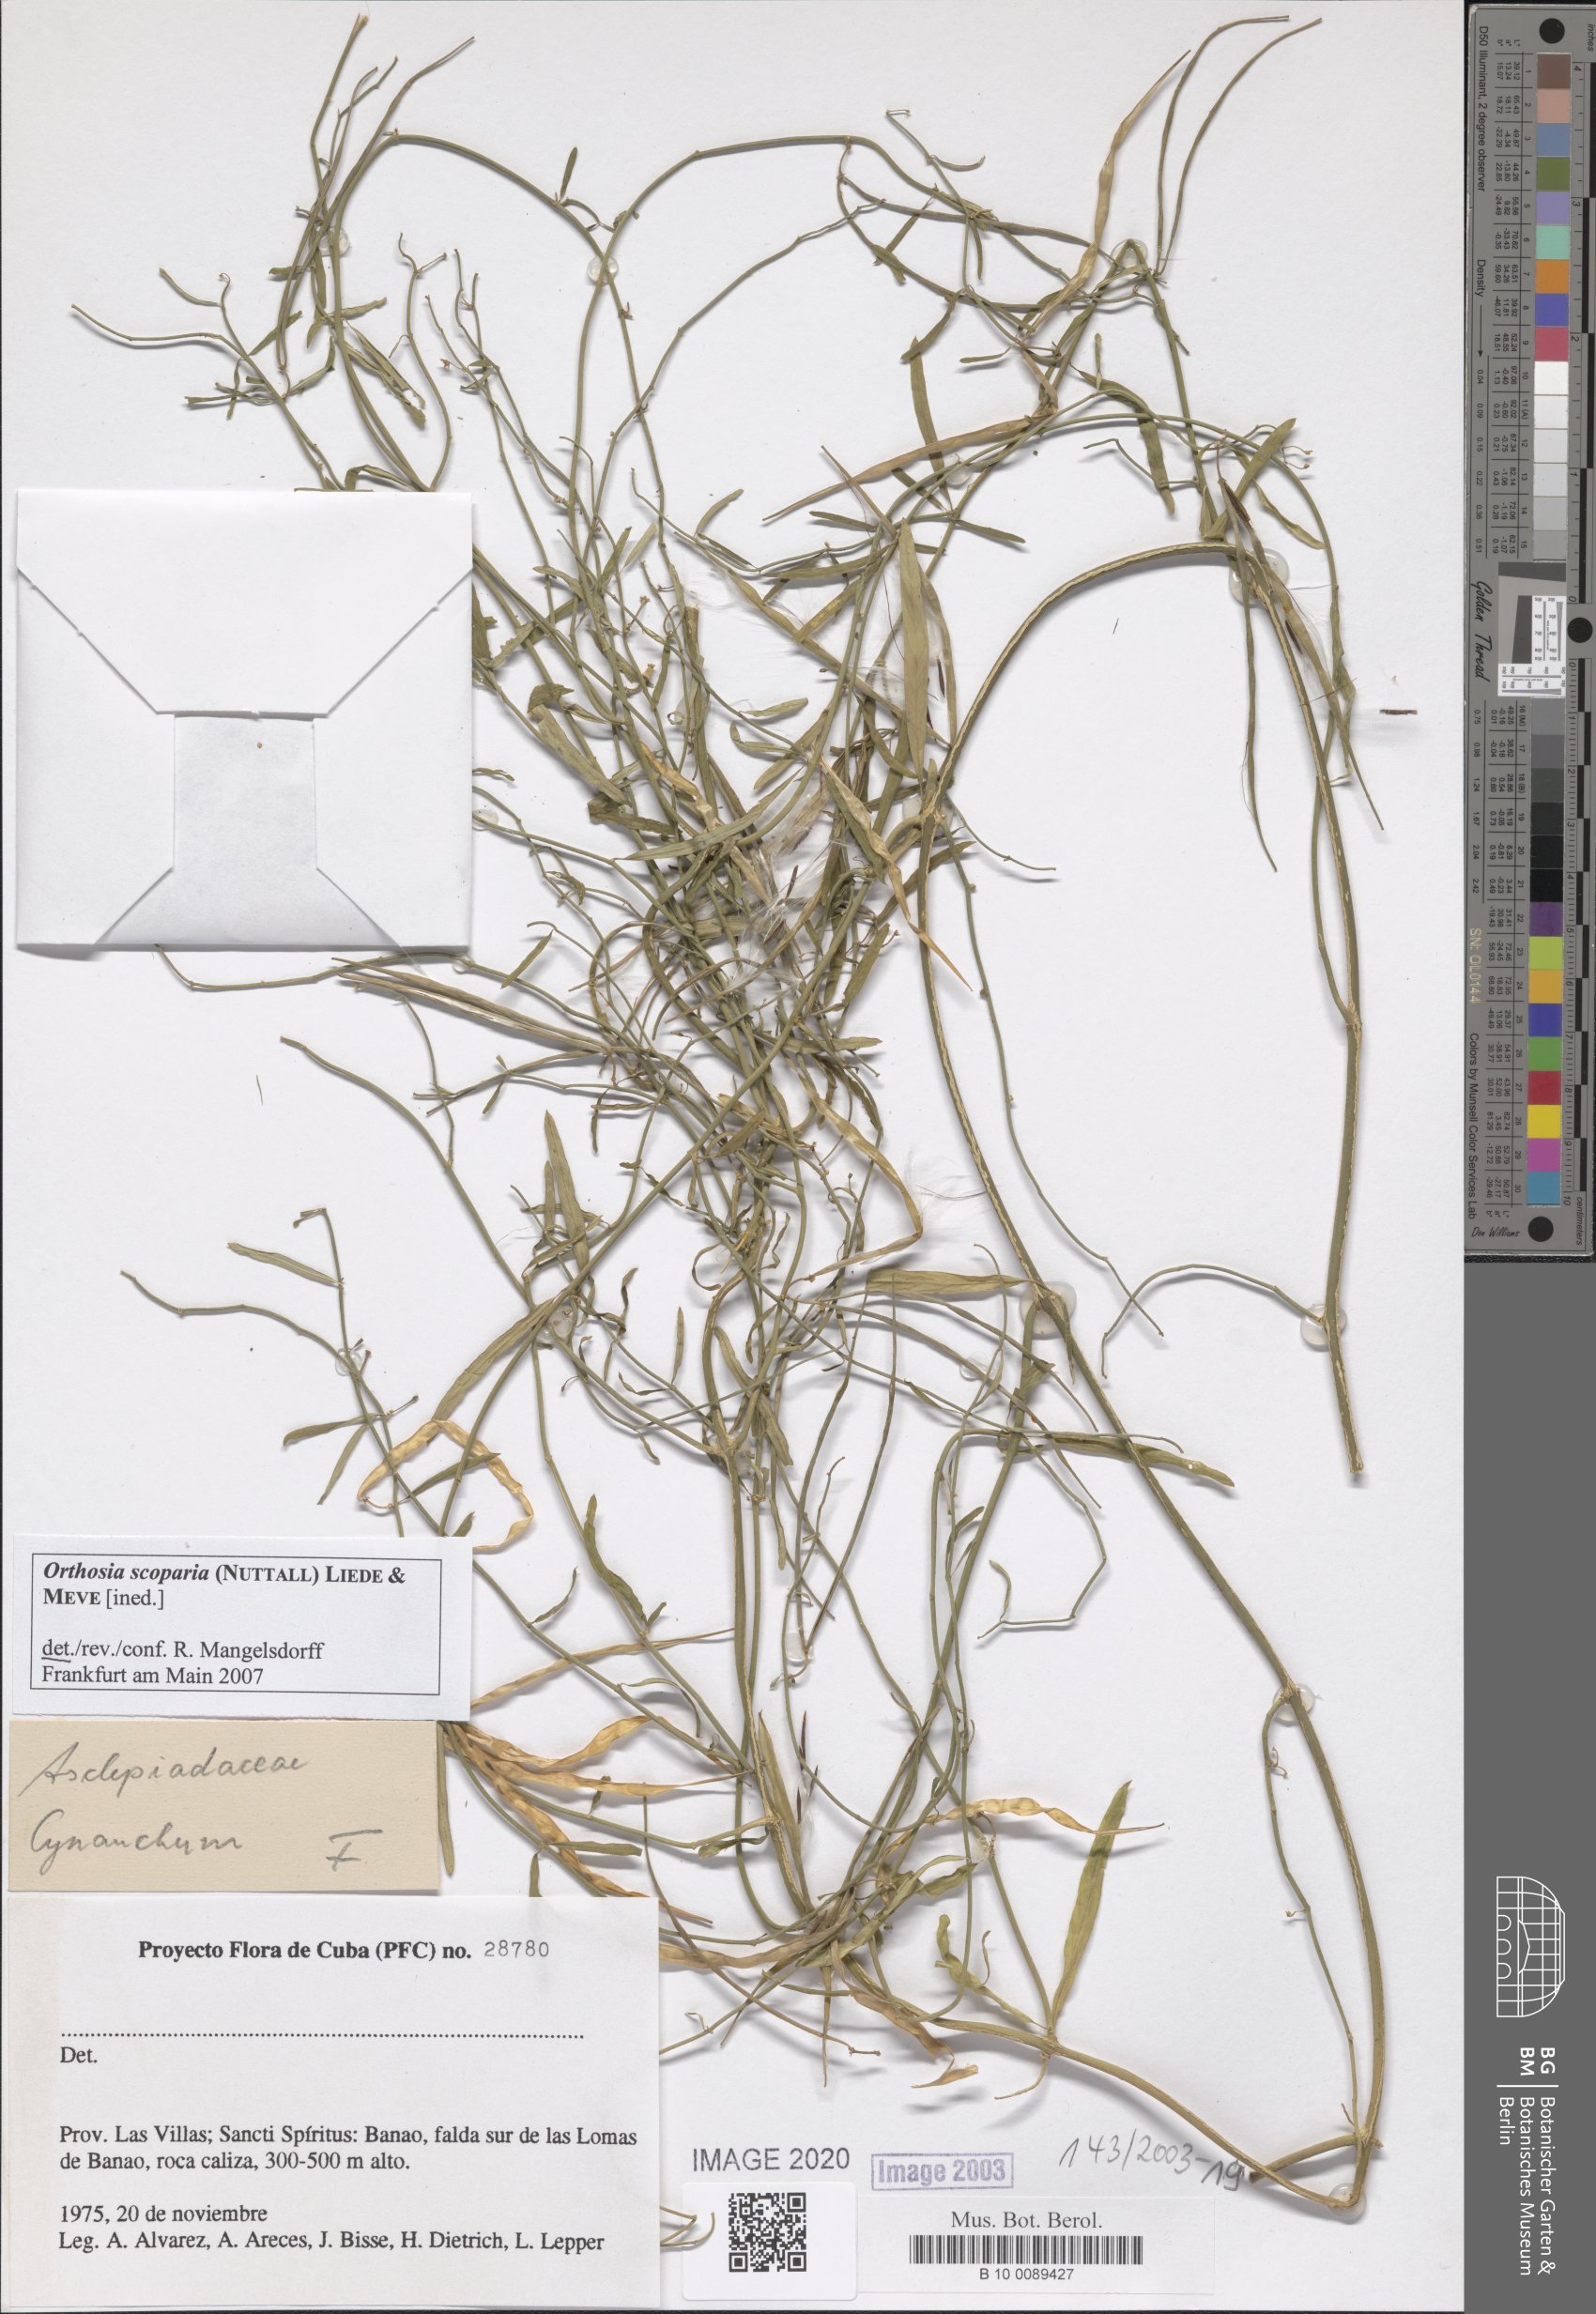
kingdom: Plantae
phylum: Tracheophyta
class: Magnoliopsida
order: Gentianales
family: Apocynaceae
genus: Cynanchum
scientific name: Cynanchum
